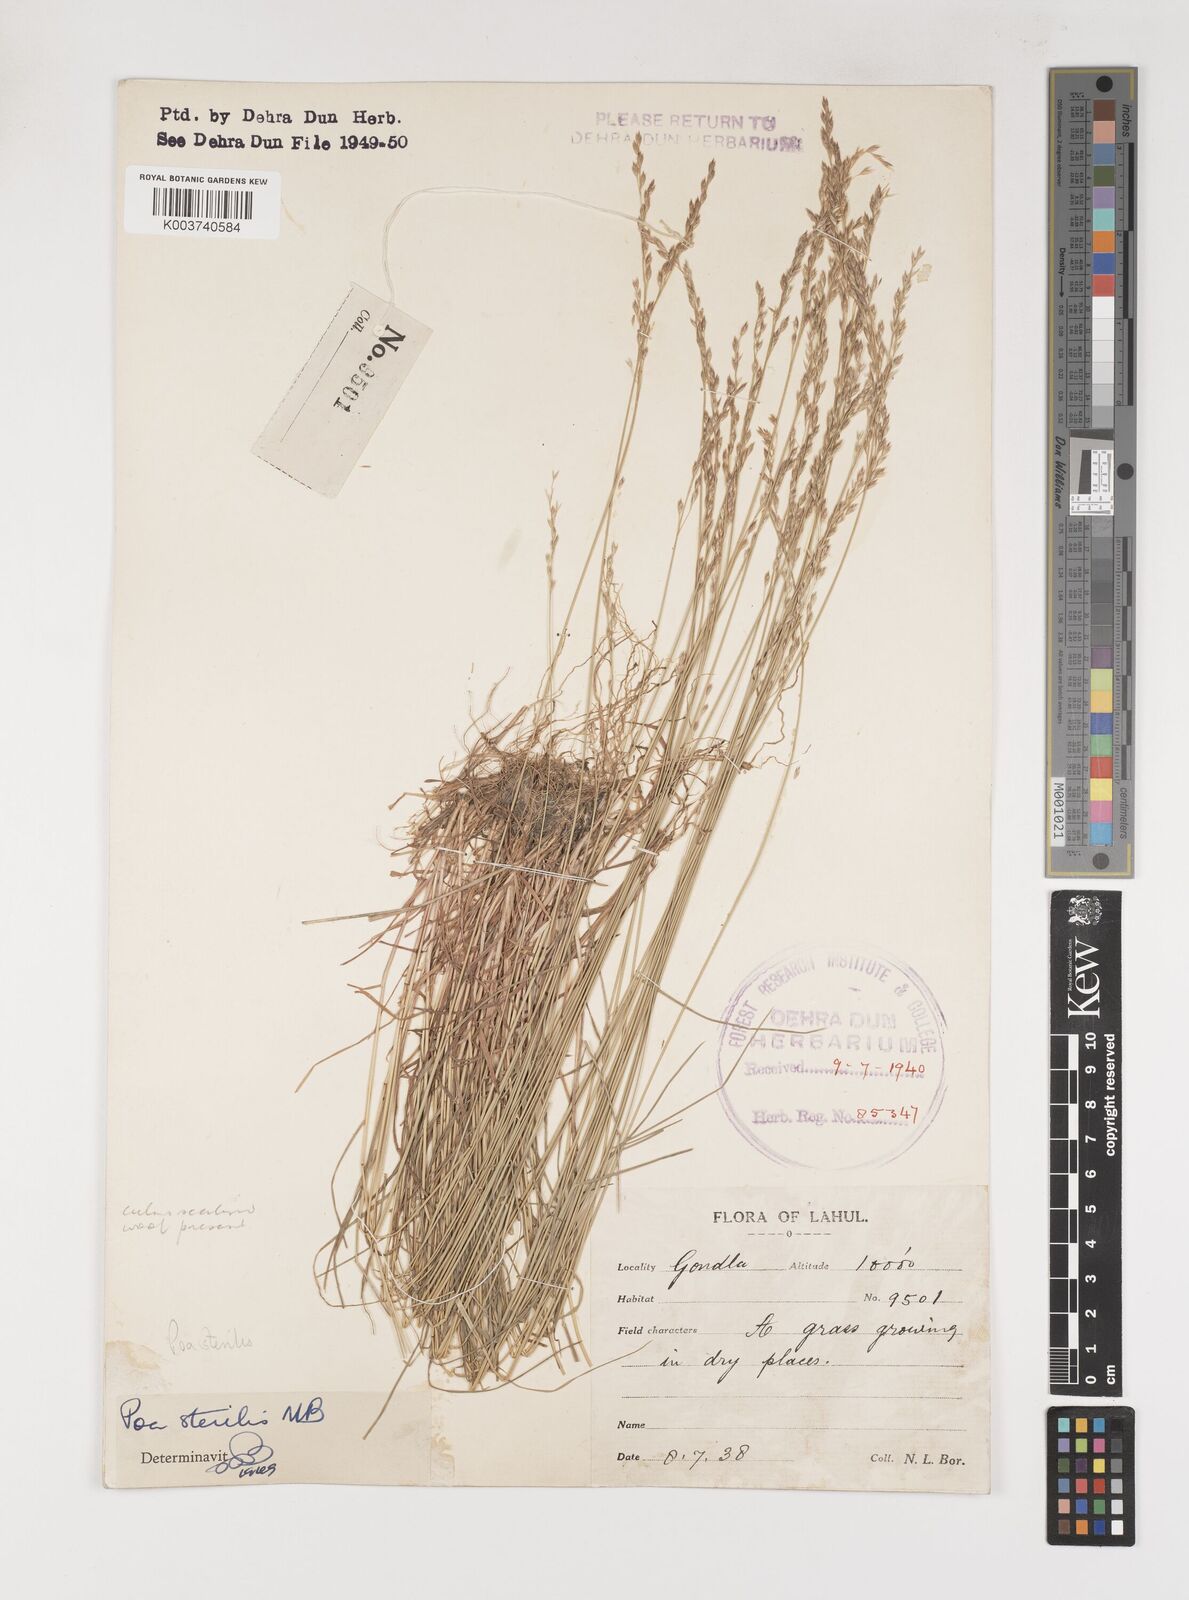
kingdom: Plantae
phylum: Tracheophyta
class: Liliopsida
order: Poales
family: Poaceae
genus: Poa
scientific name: Poa sterilis
